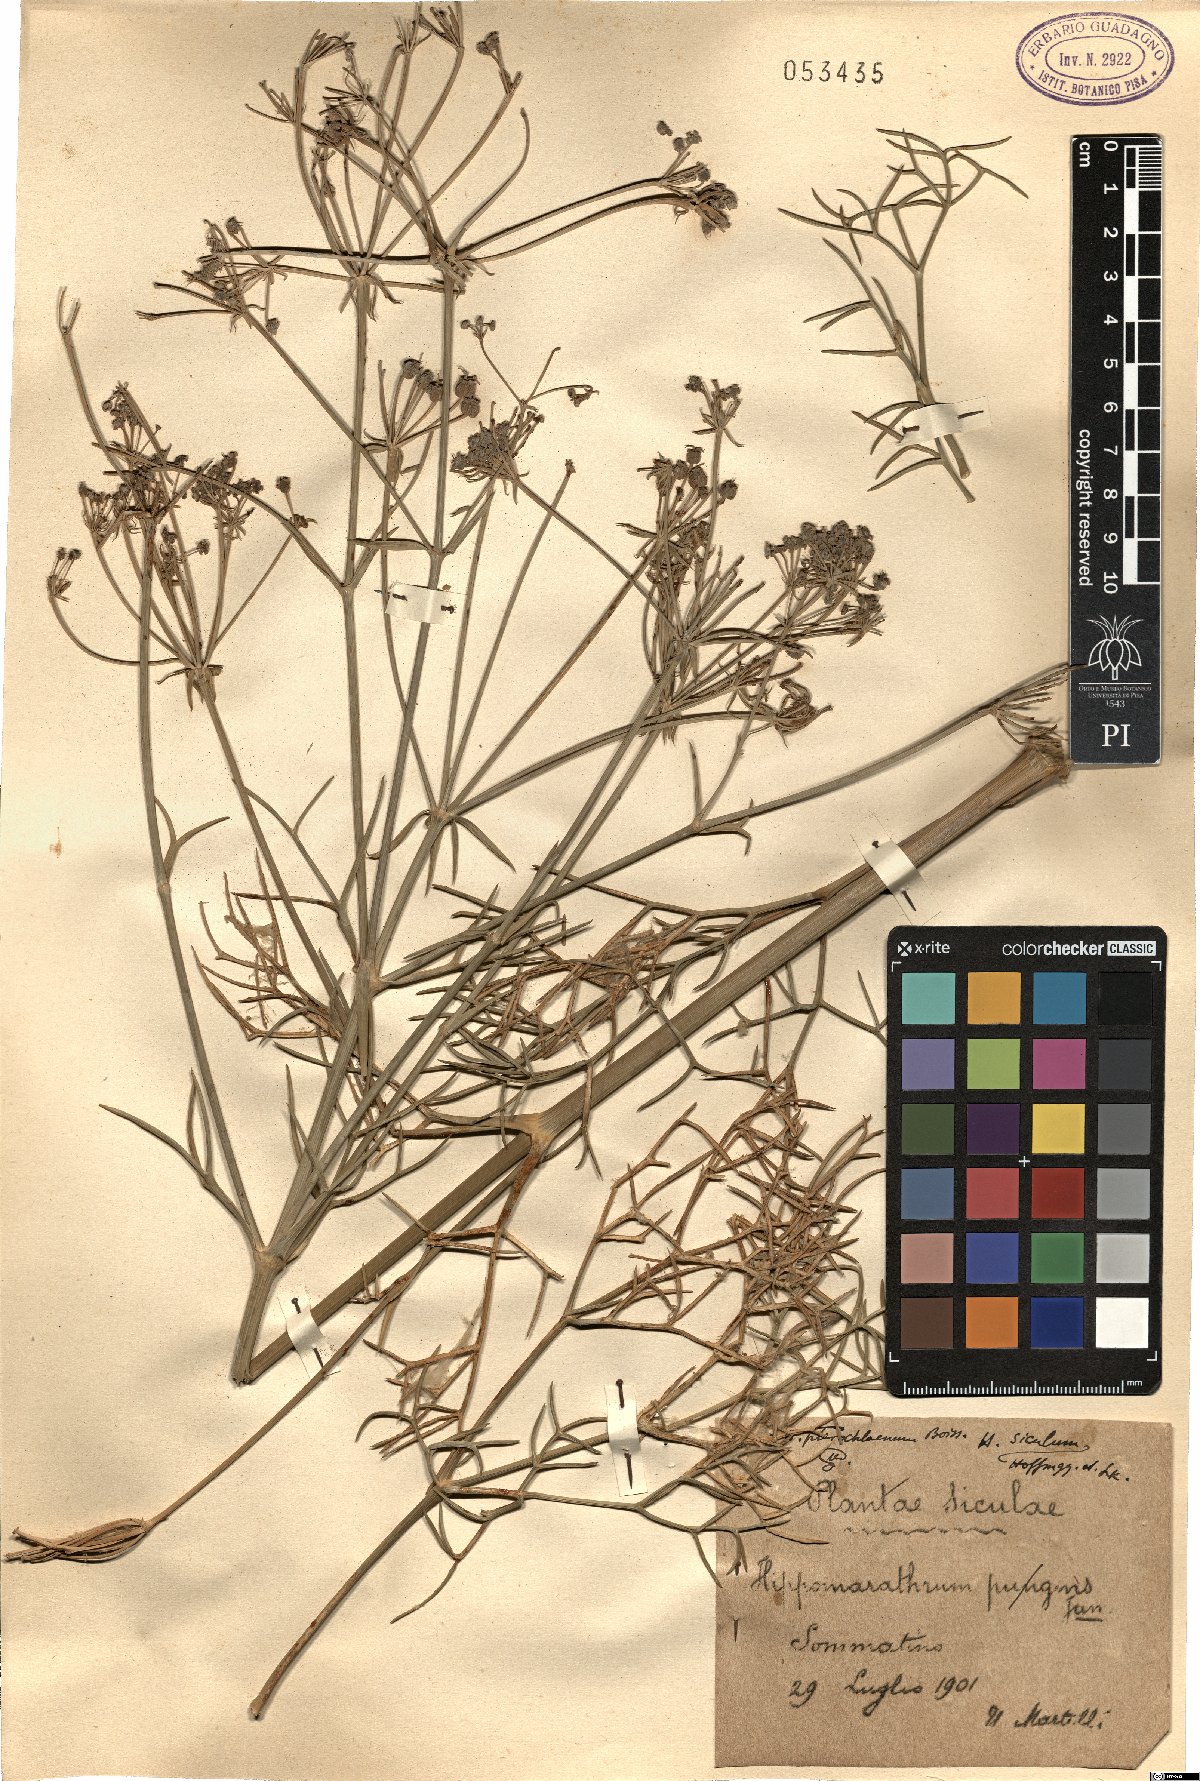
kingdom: Plantae
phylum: Tracheophyta
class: Magnoliopsida
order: Apiales
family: Apiaceae
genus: Cachrys
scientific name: Cachrys sicula
